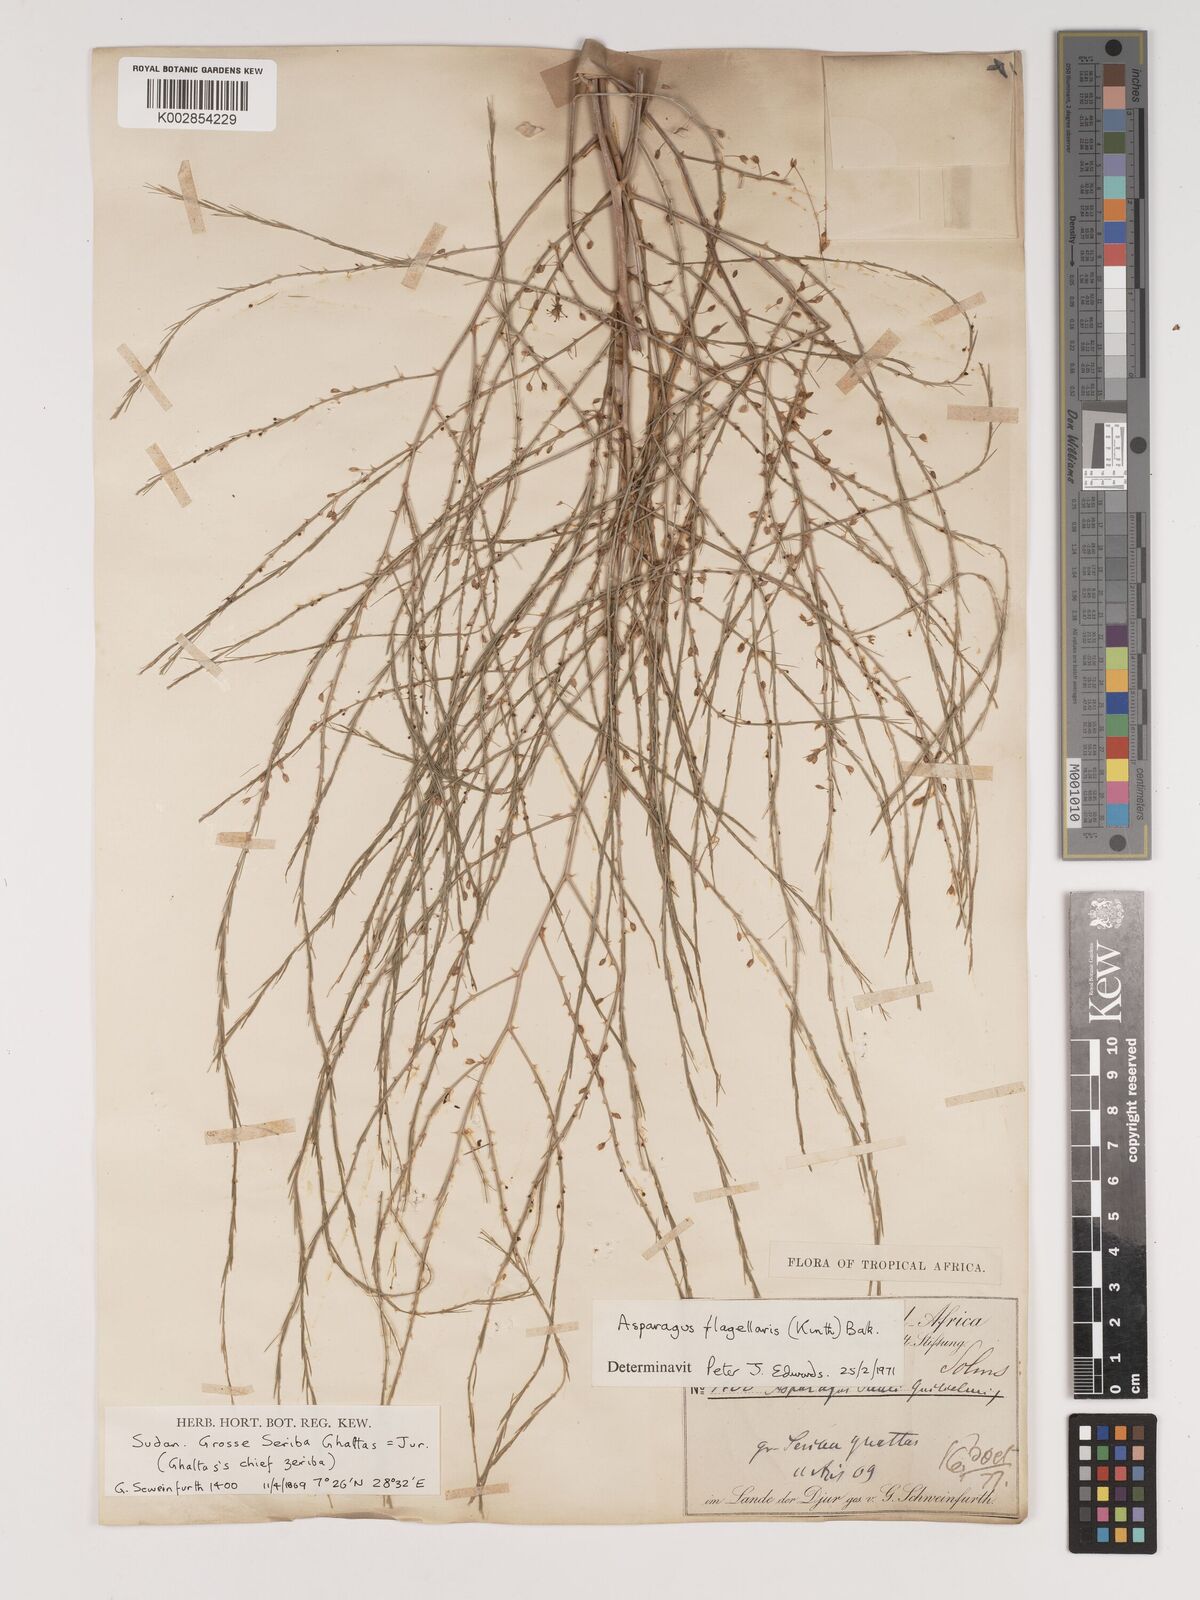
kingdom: Plantae
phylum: Tracheophyta
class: Liliopsida
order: Asparagales
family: Asparagaceae
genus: Asparagus
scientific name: Asparagus flagellaris
